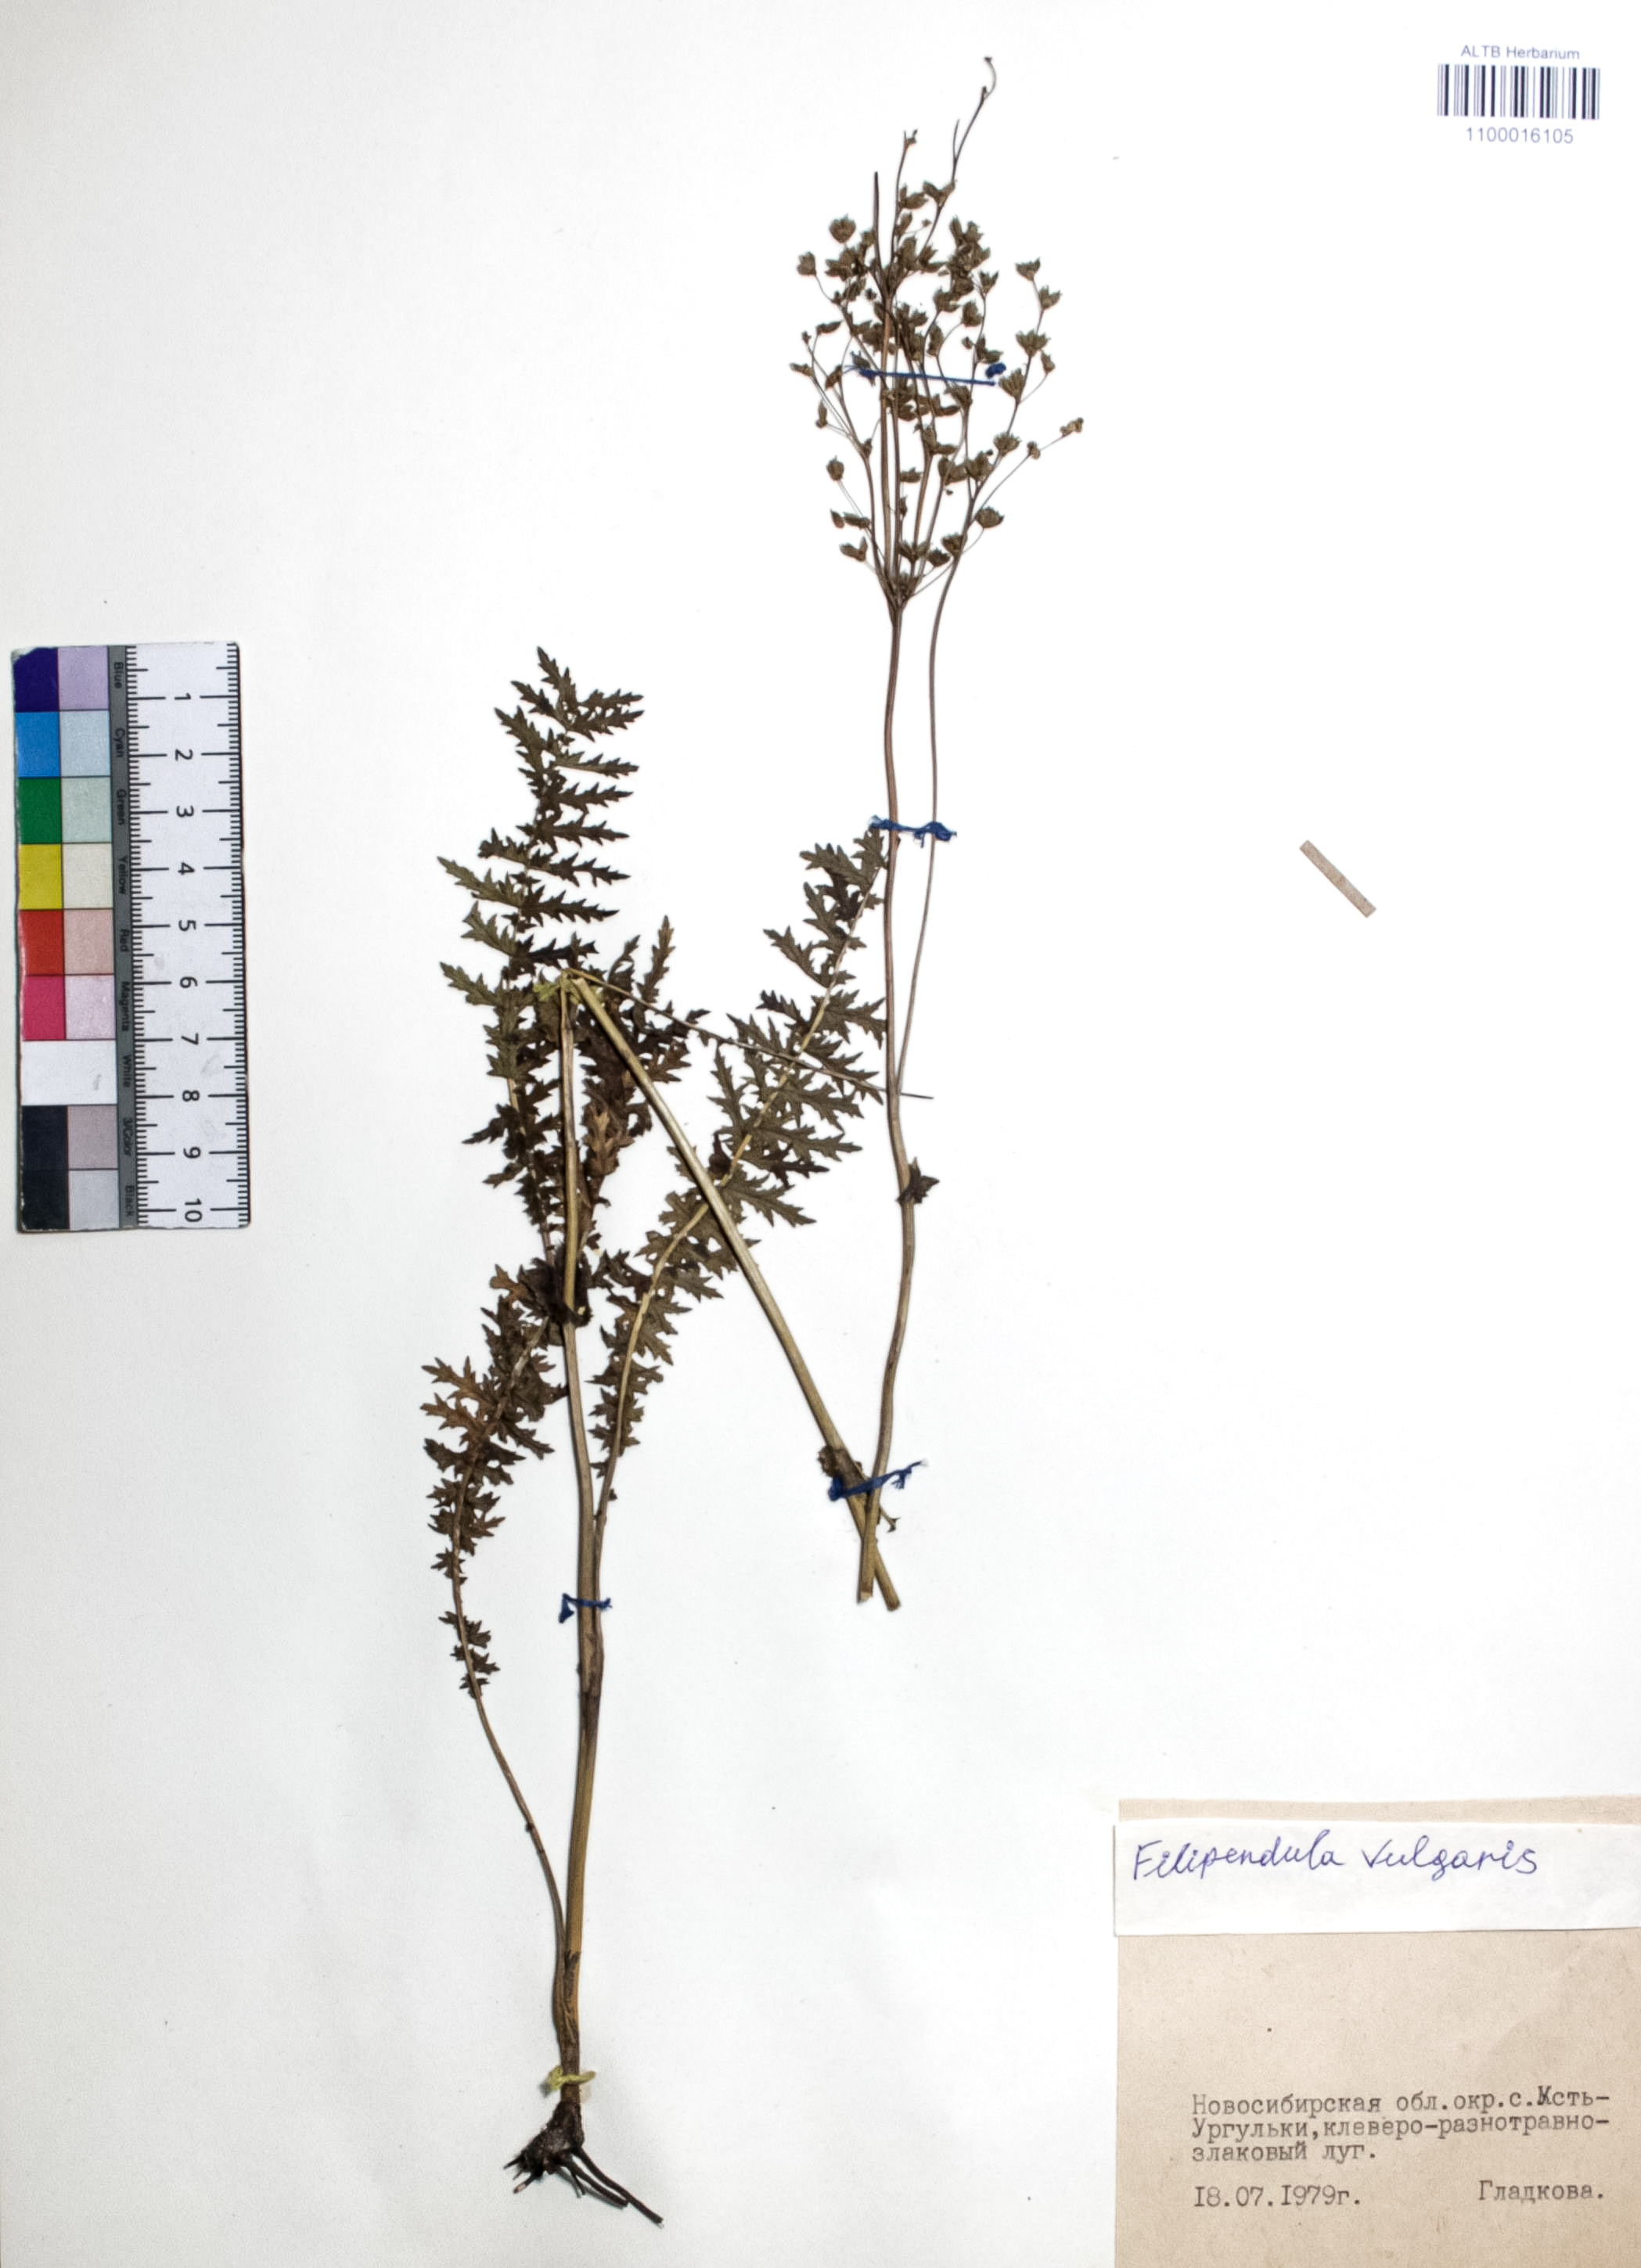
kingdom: Plantae
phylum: Tracheophyta
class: Magnoliopsida
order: Rosales
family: Rosaceae
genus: Filipendula
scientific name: Filipendula vulgaris
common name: Dropwort
